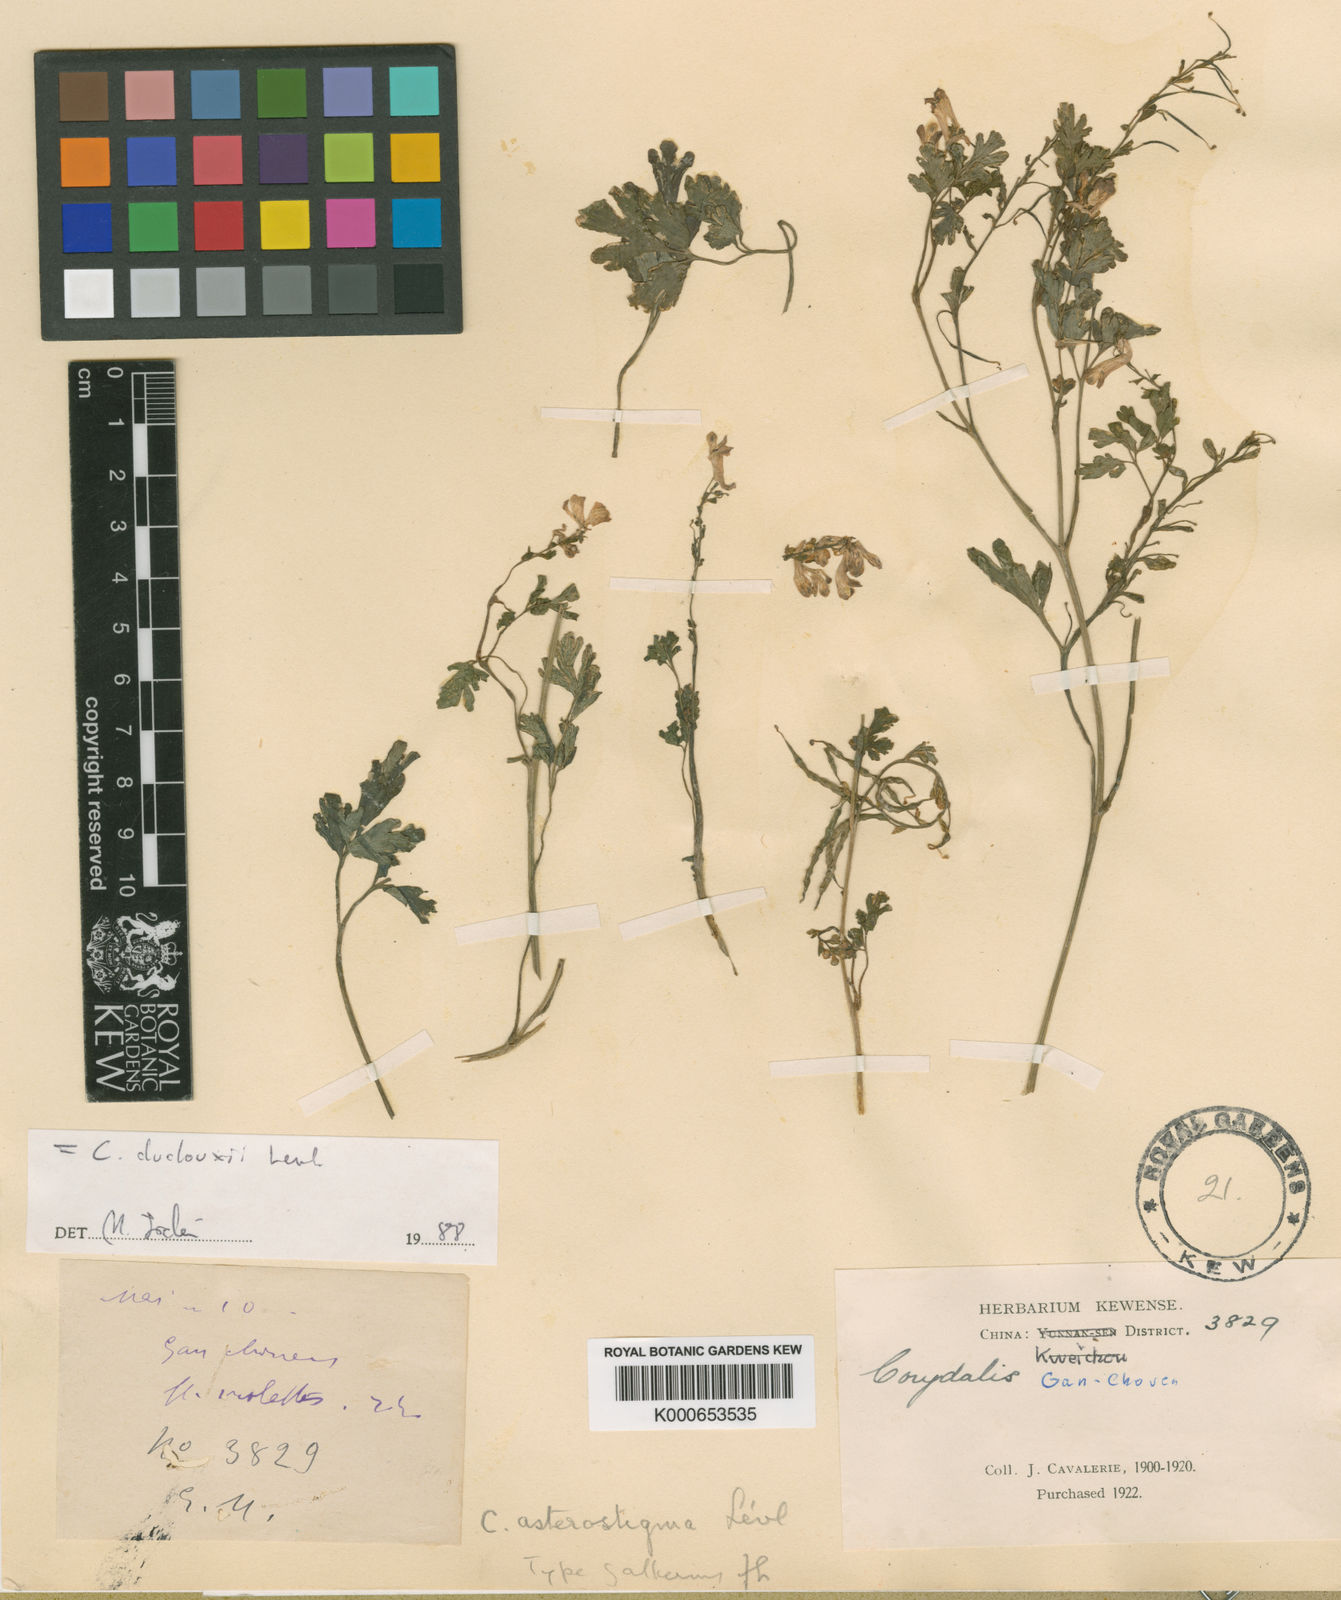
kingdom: Plantae
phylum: Tracheophyta
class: Magnoliopsida
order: Ranunculales
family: Papaveraceae
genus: Corydalis
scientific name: Corydalis
